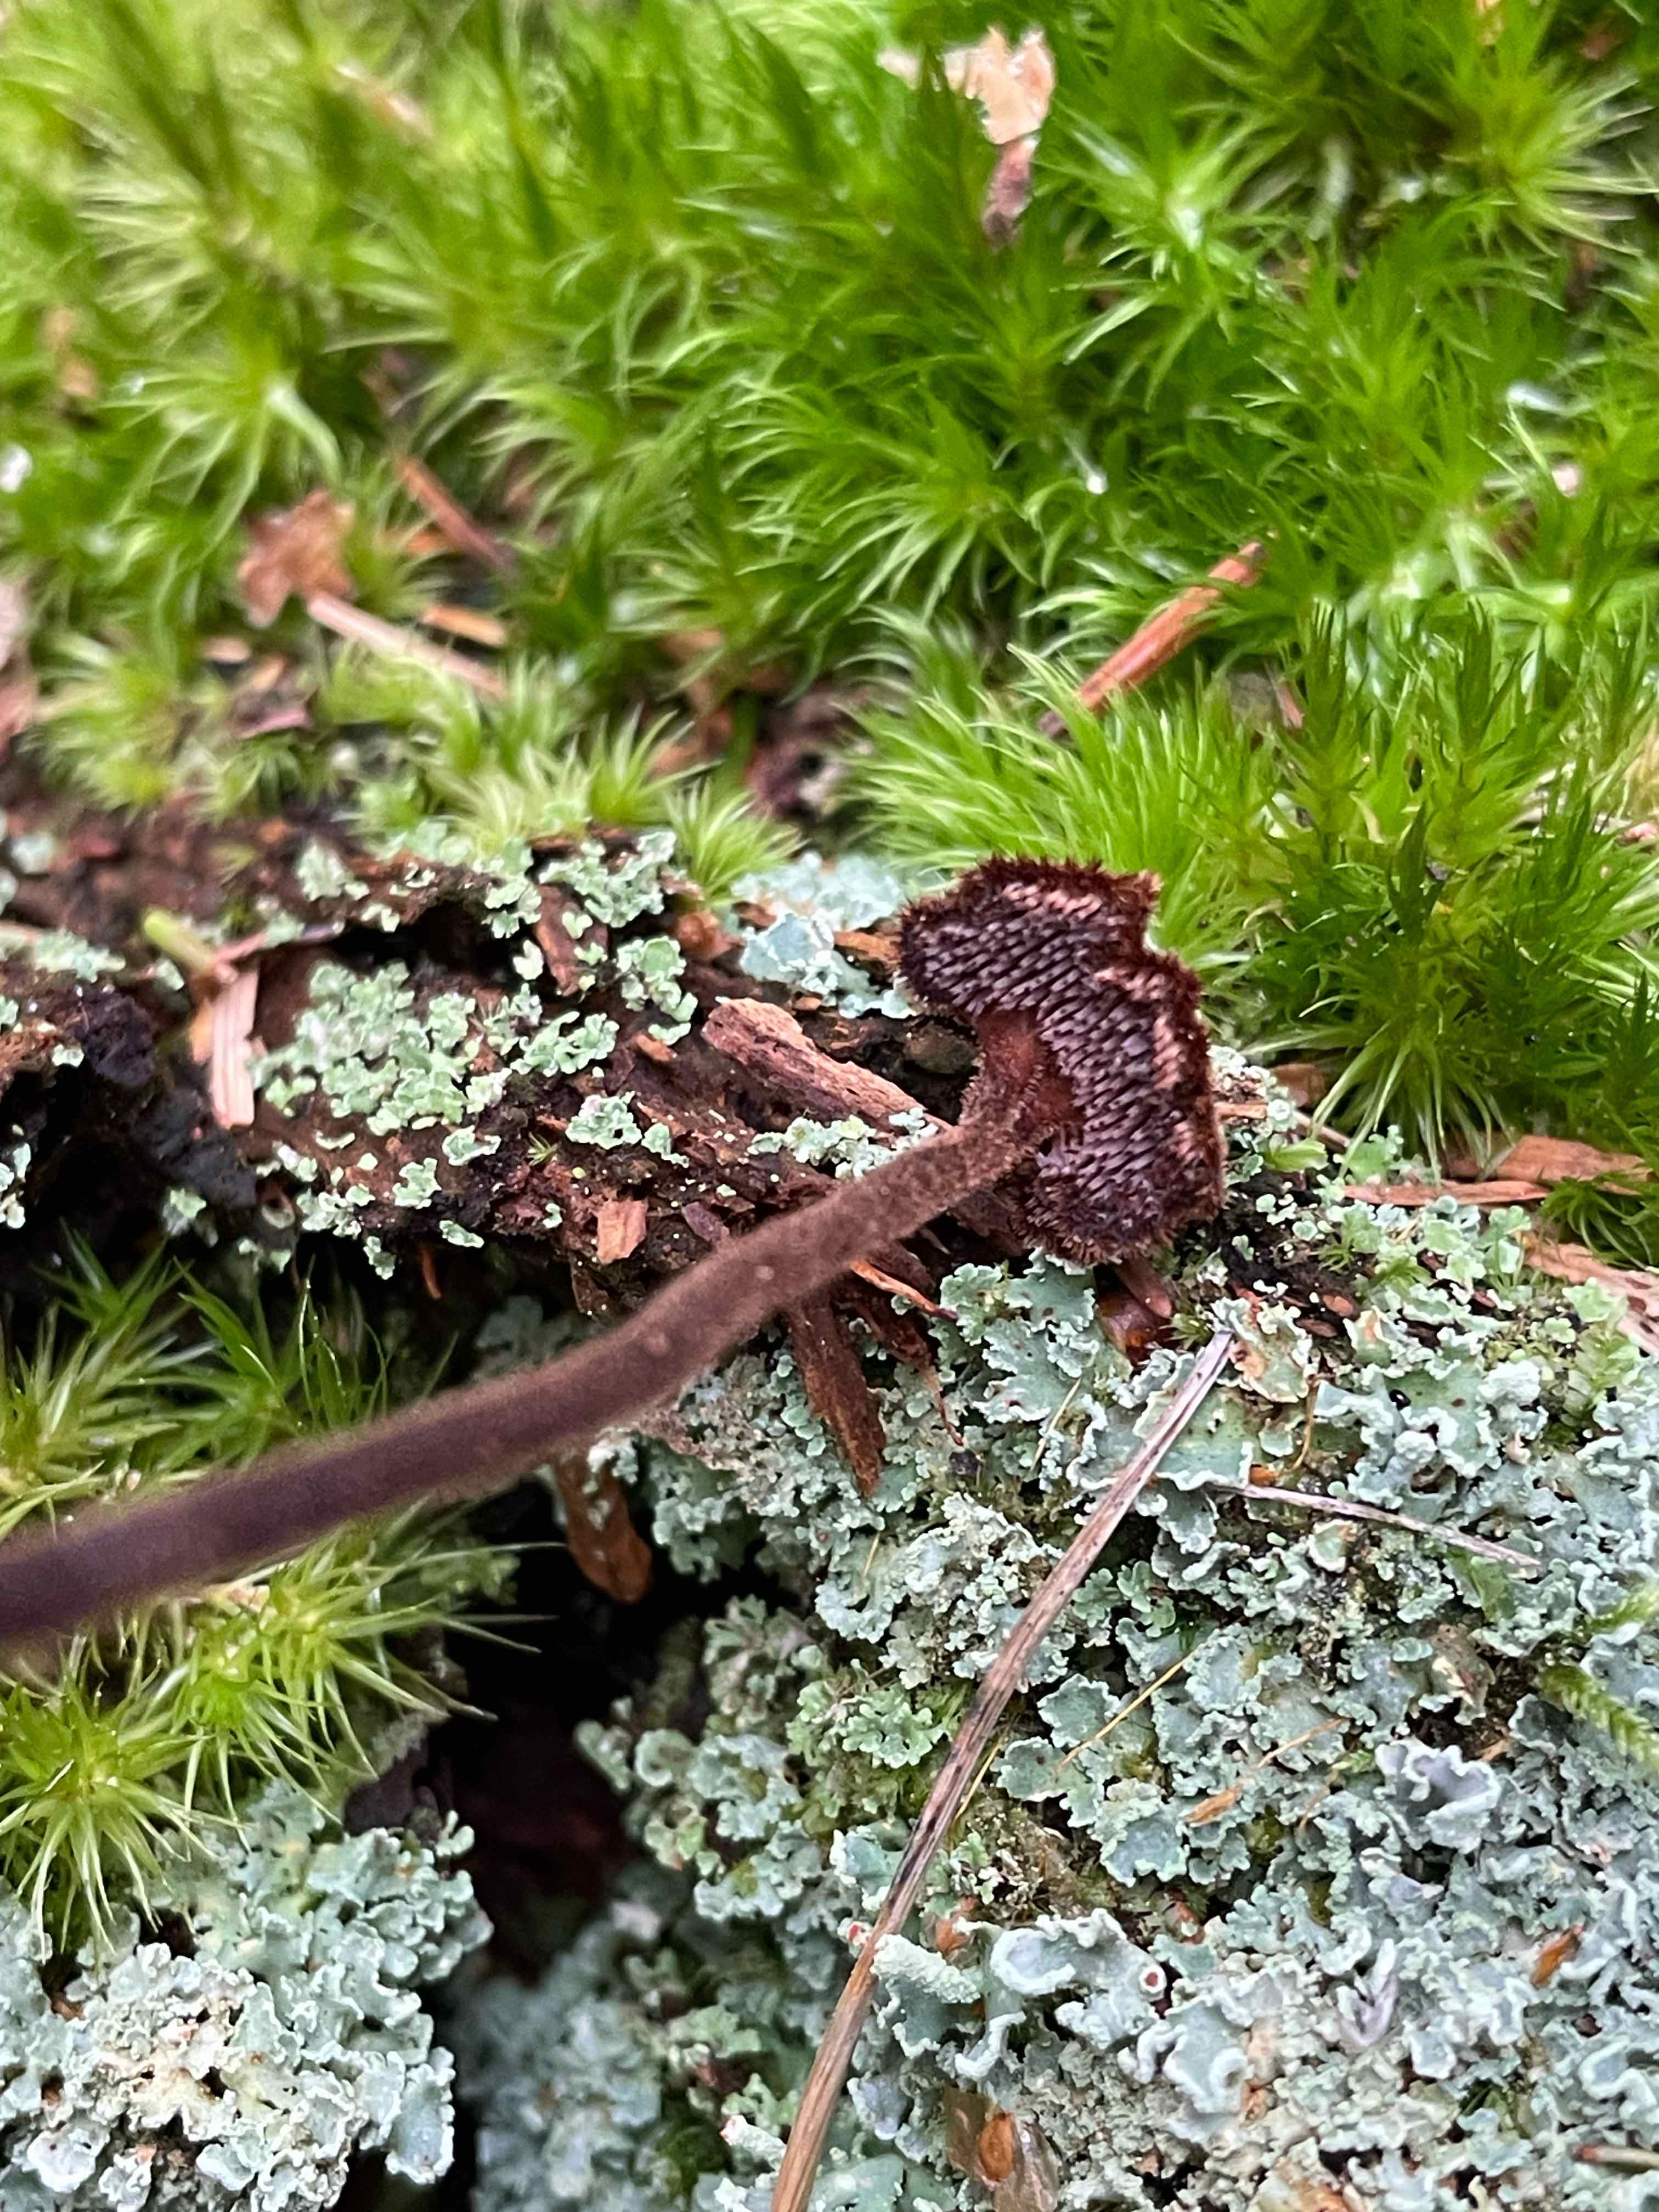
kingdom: Fungi
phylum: Basidiomycota
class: Agaricomycetes
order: Russulales
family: Auriscalpiaceae
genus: Auriscalpium
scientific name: Auriscalpium vulgare
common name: koglepigsvamp
